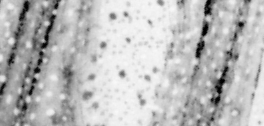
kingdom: Animalia
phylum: Chordata
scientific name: Chordata
